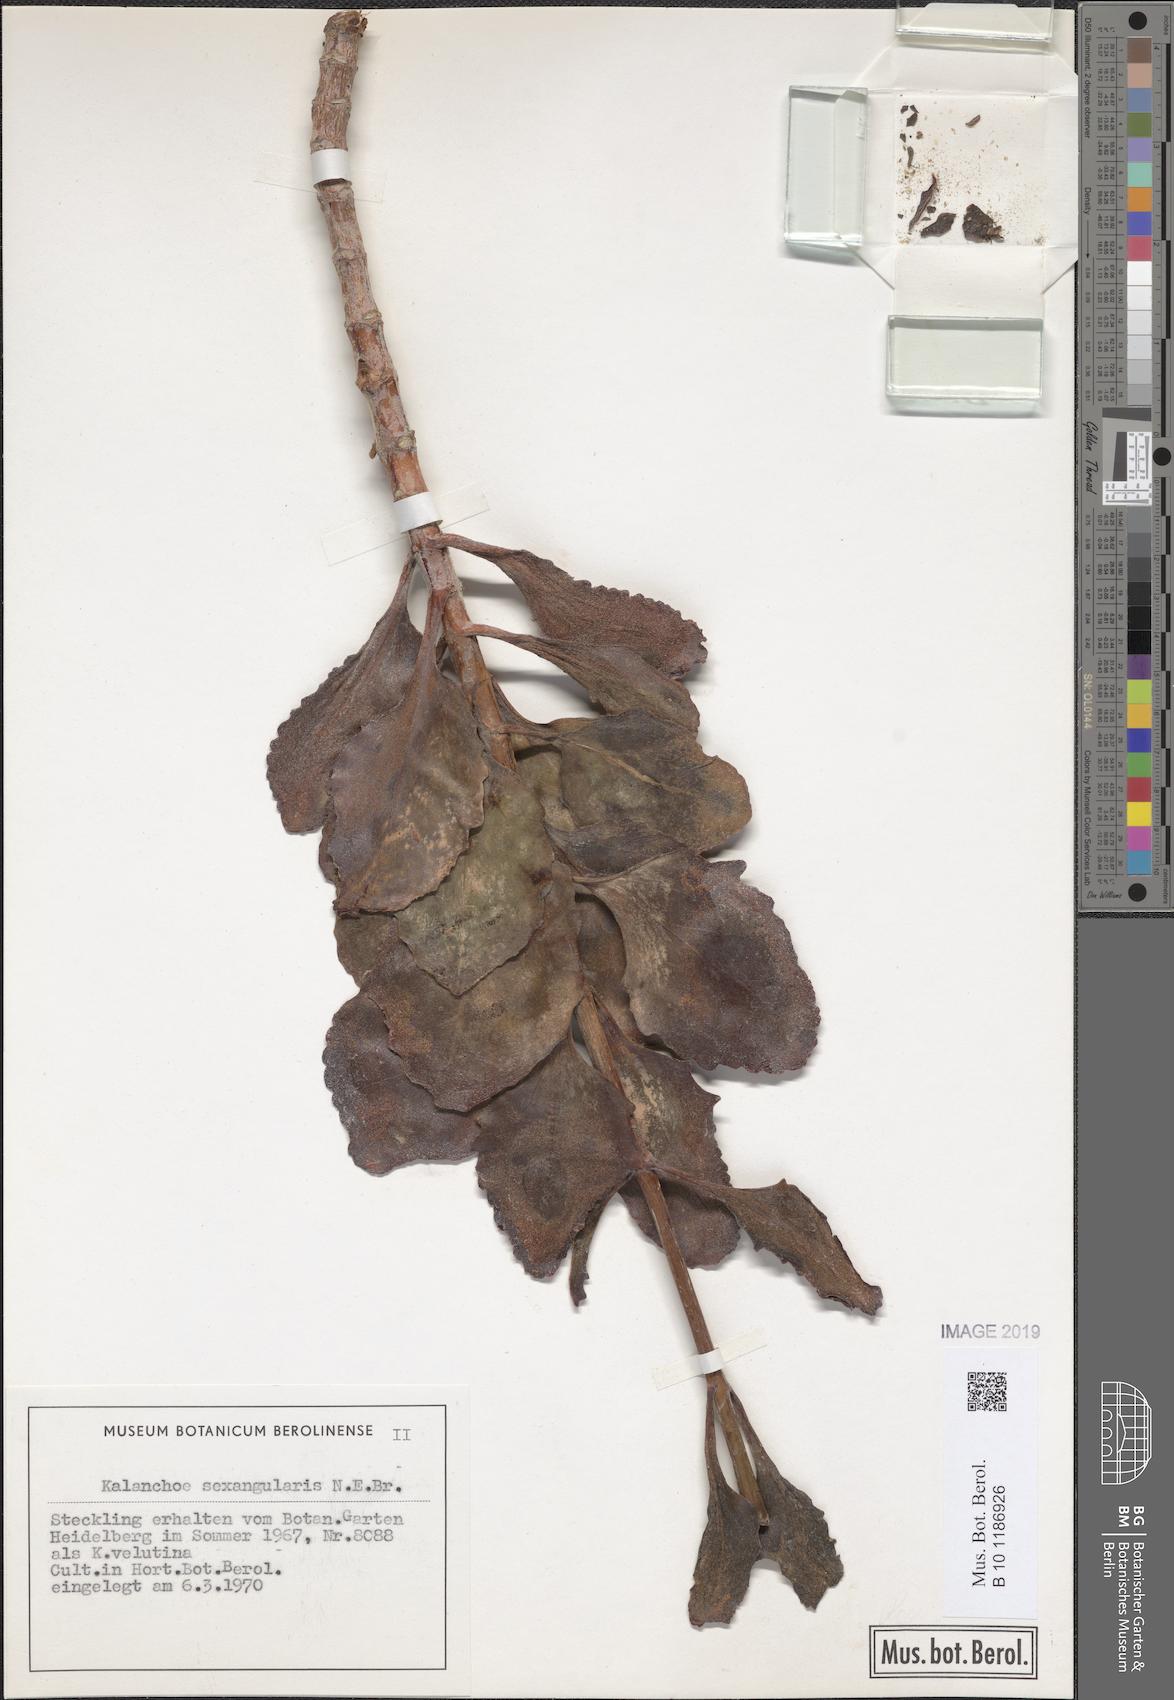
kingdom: Plantae
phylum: Tracheophyta
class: Magnoliopsida
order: Saxifragales
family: Crassulaceae
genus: Kalanchoe
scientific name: Kalanchoe sexangularis
